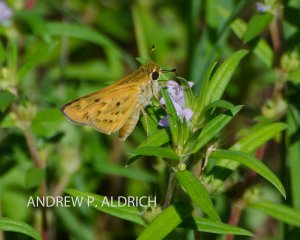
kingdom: Animalia
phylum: Arthropoda
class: Insecta
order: Lepidoptera
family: Hesperiidae
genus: Hylephila
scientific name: Hylephila phyleus
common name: Fiery Skipper
